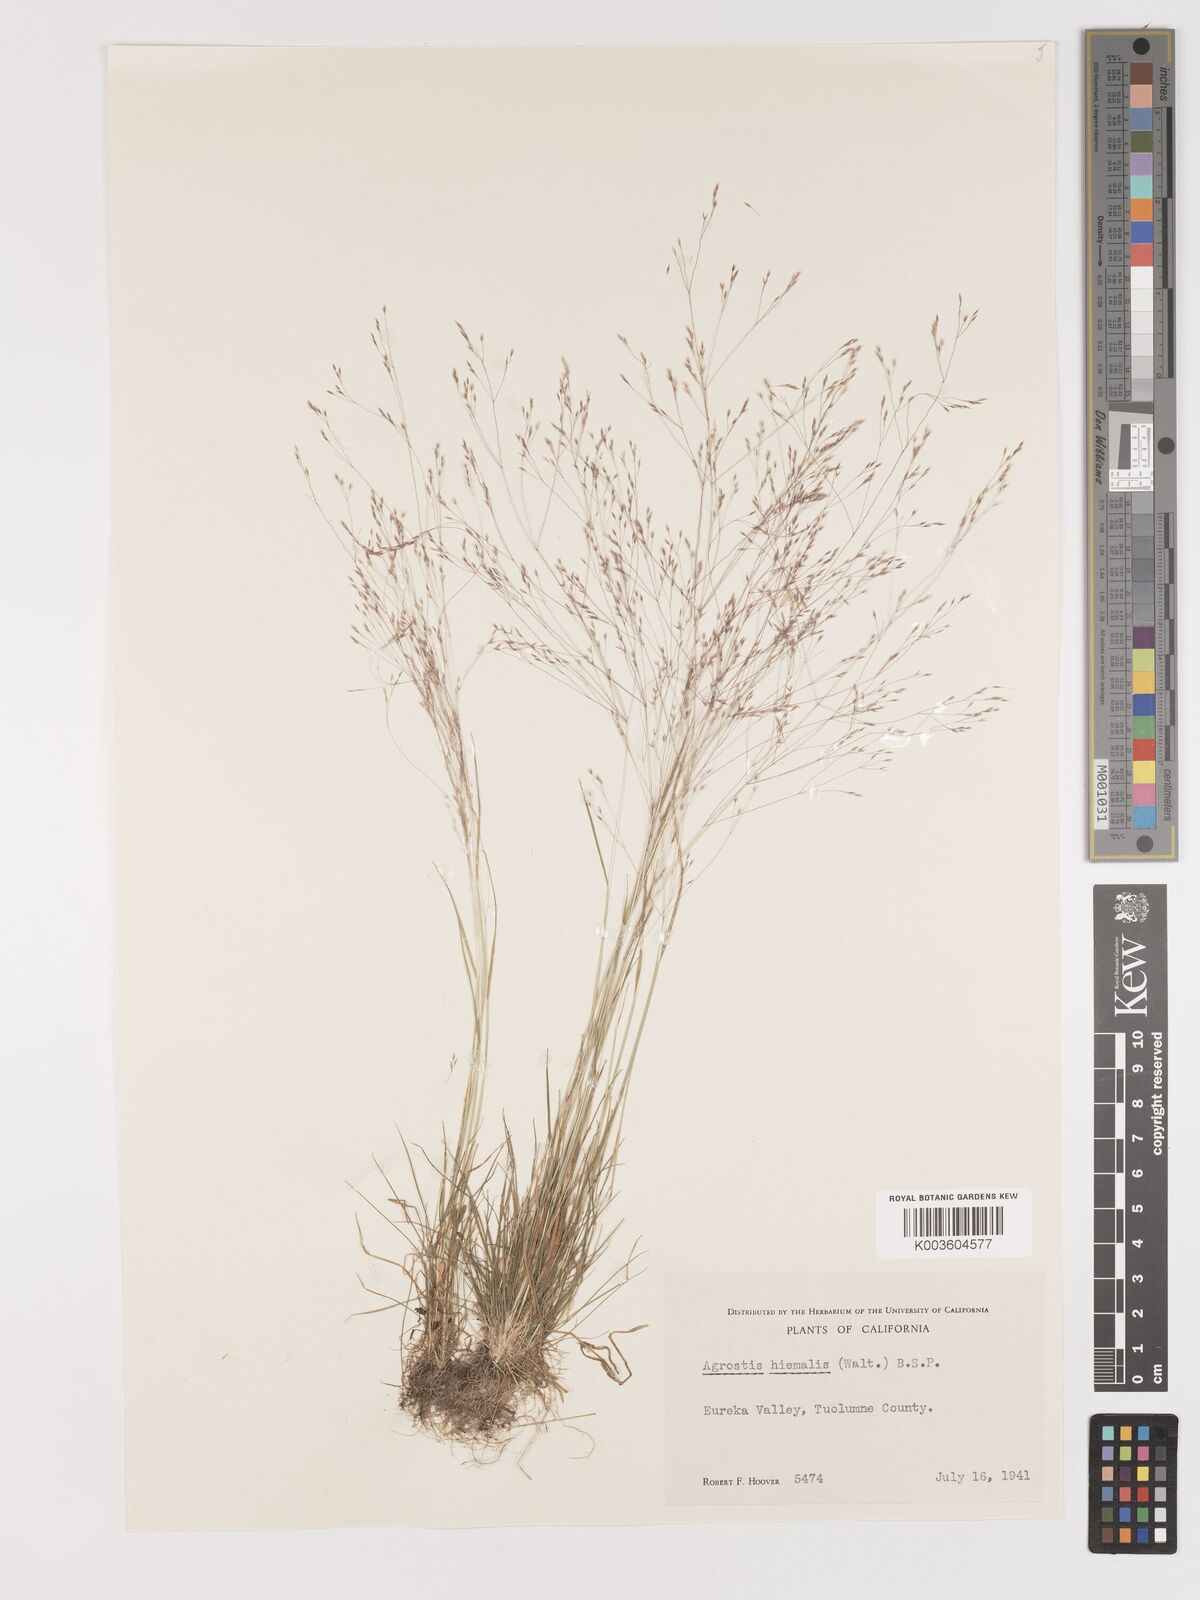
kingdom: Plantae
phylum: Tracheophyta
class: Liliopsida
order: Poales
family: Poaceae
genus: Agrostis
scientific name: Agrostis hyemalis
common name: Small bent
